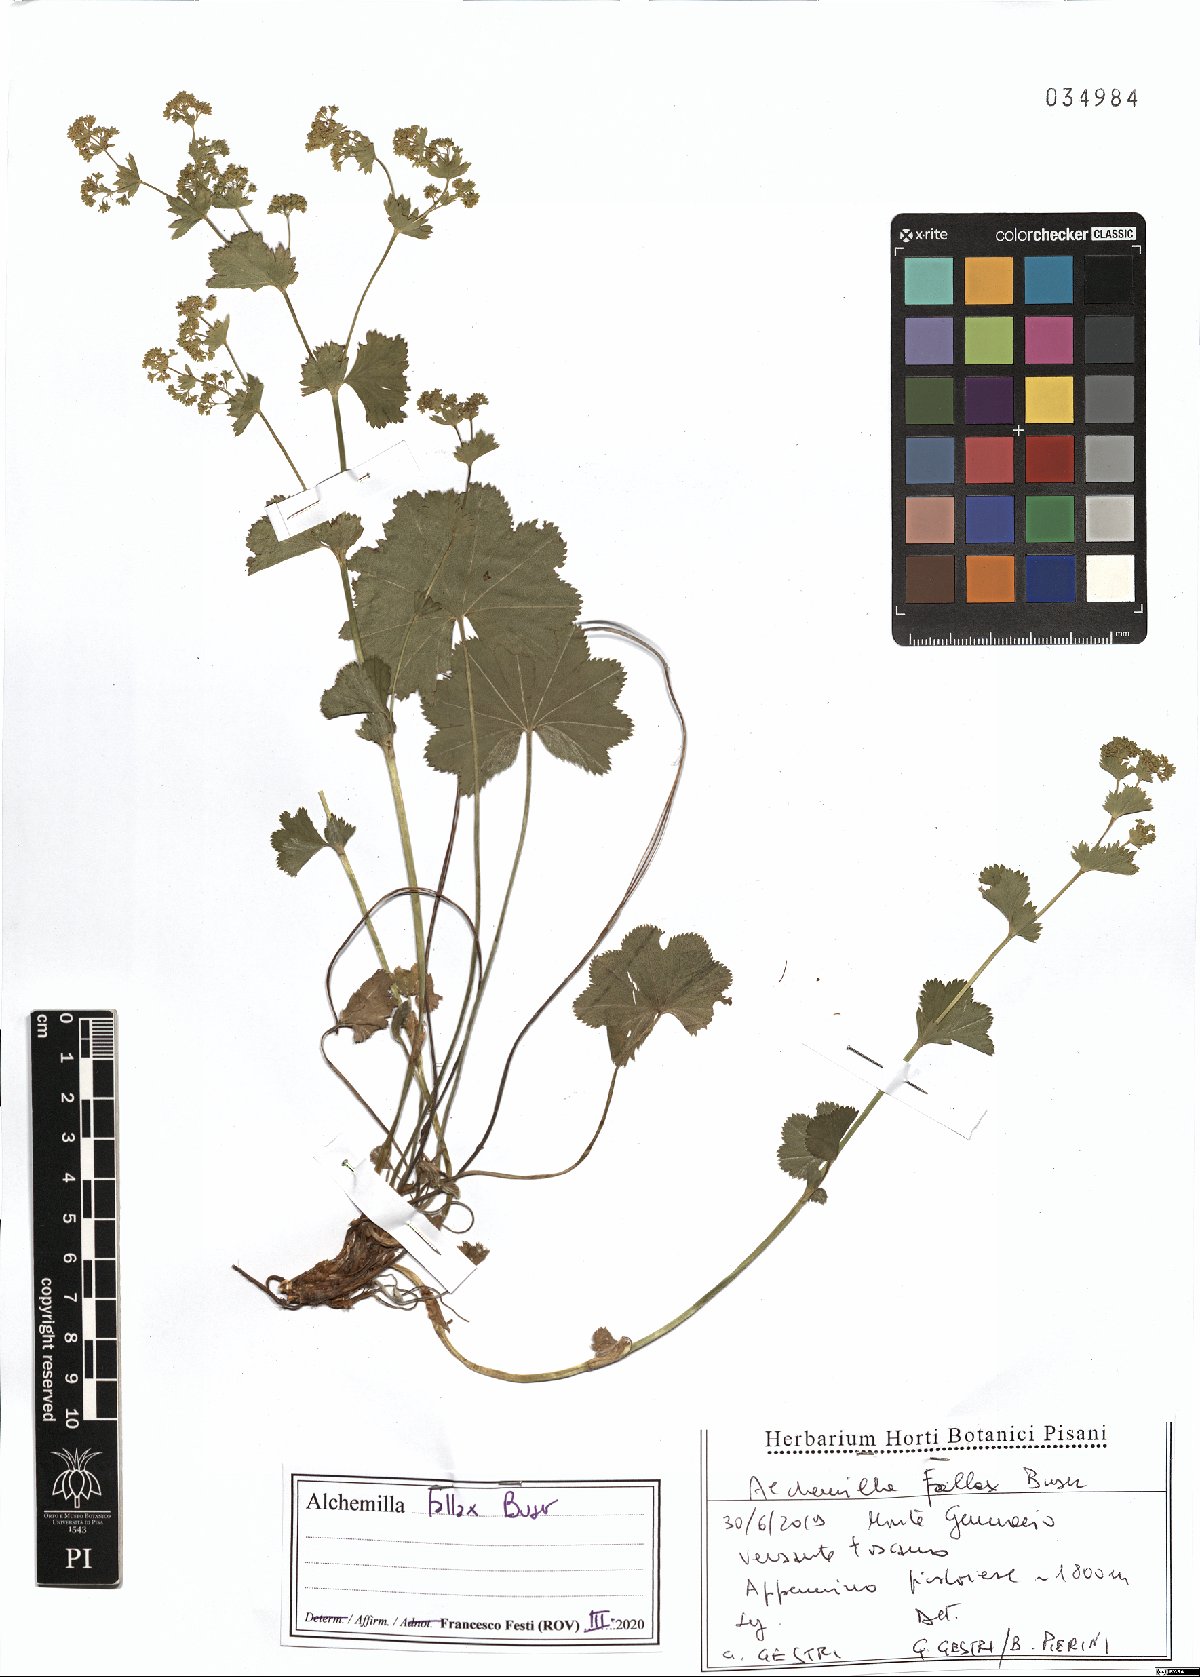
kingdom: Plantae
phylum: Tracheophyta
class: Magnoliopsida
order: Rosales
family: Rosaceae
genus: Alchemilla
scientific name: Alchemilla fallax
